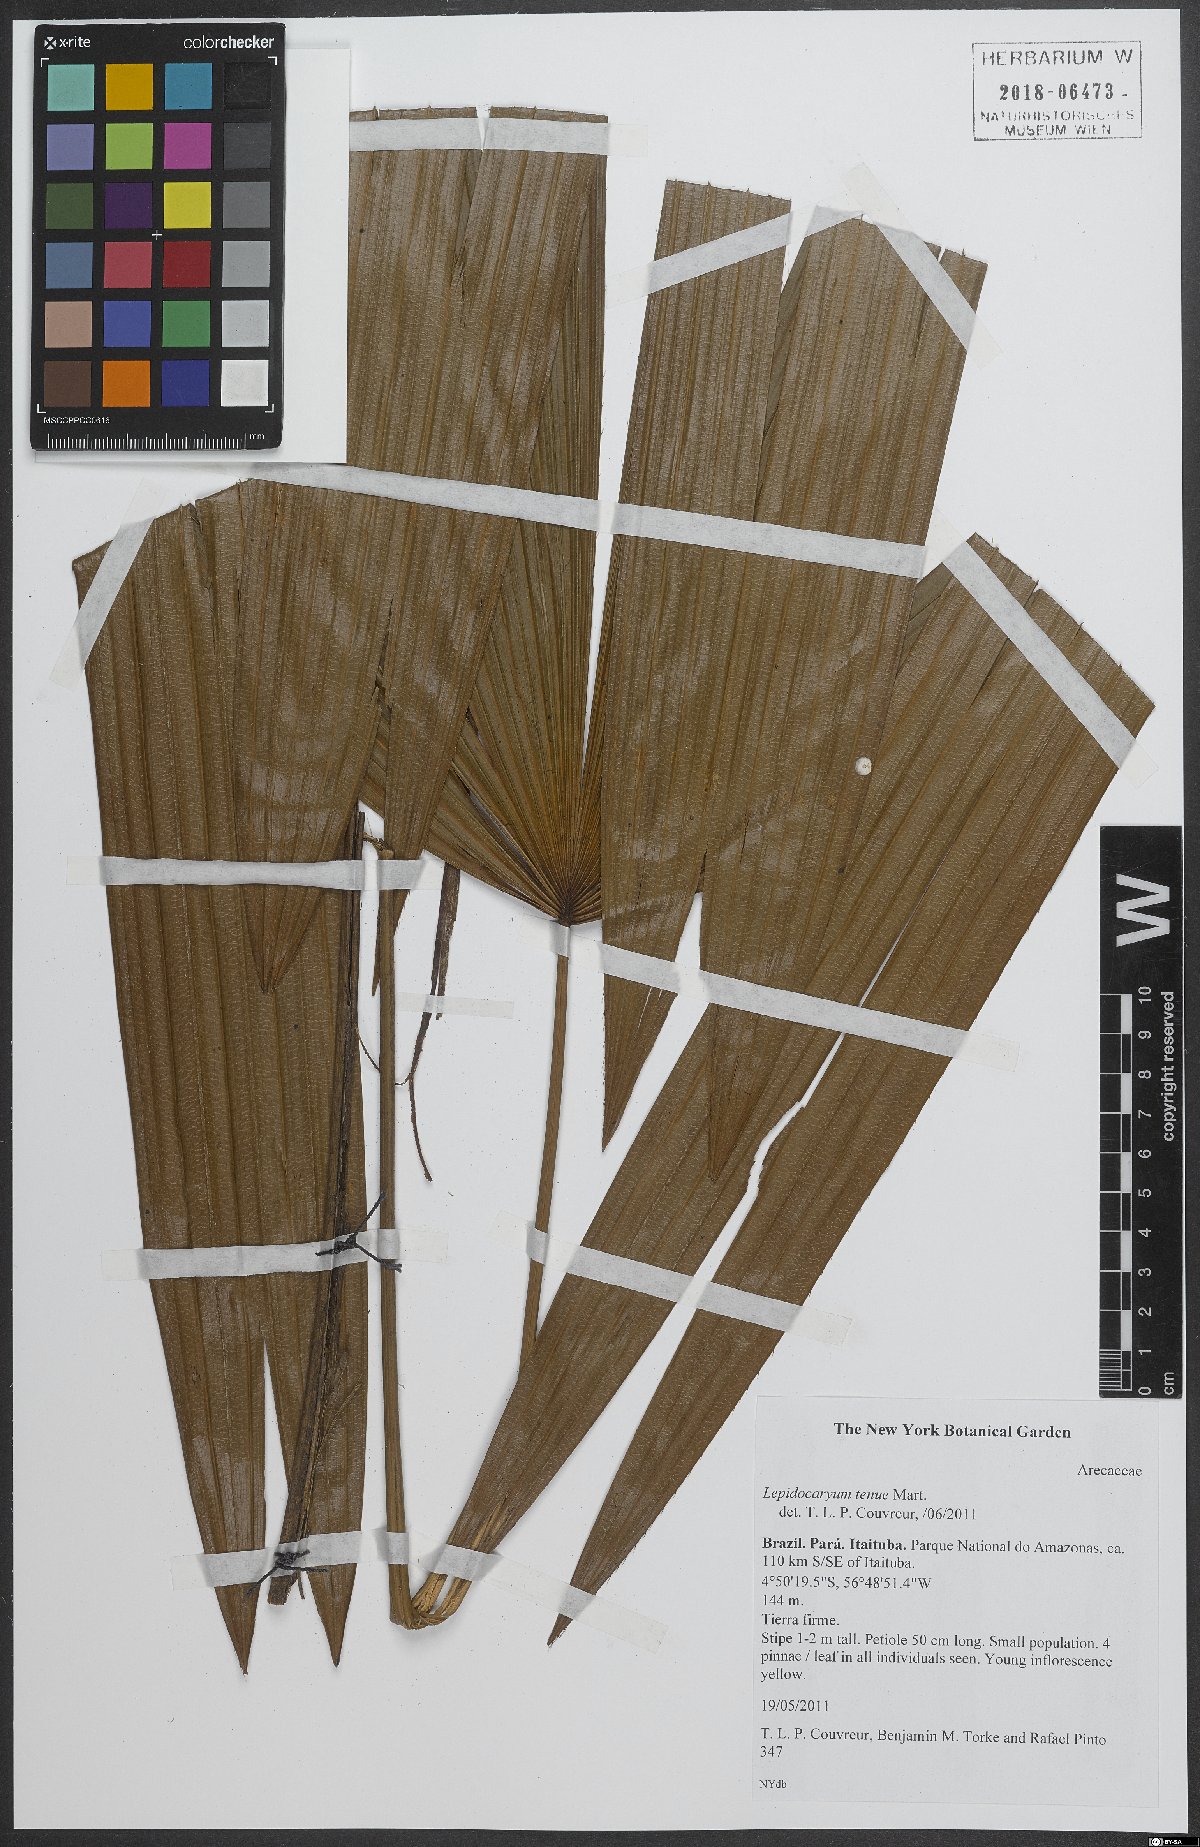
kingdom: Plantae
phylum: Tracheophyta
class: Liliopsida
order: Arecales
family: Arecaceae
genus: Lepidocaryum
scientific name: Lepidocaryum tenue
